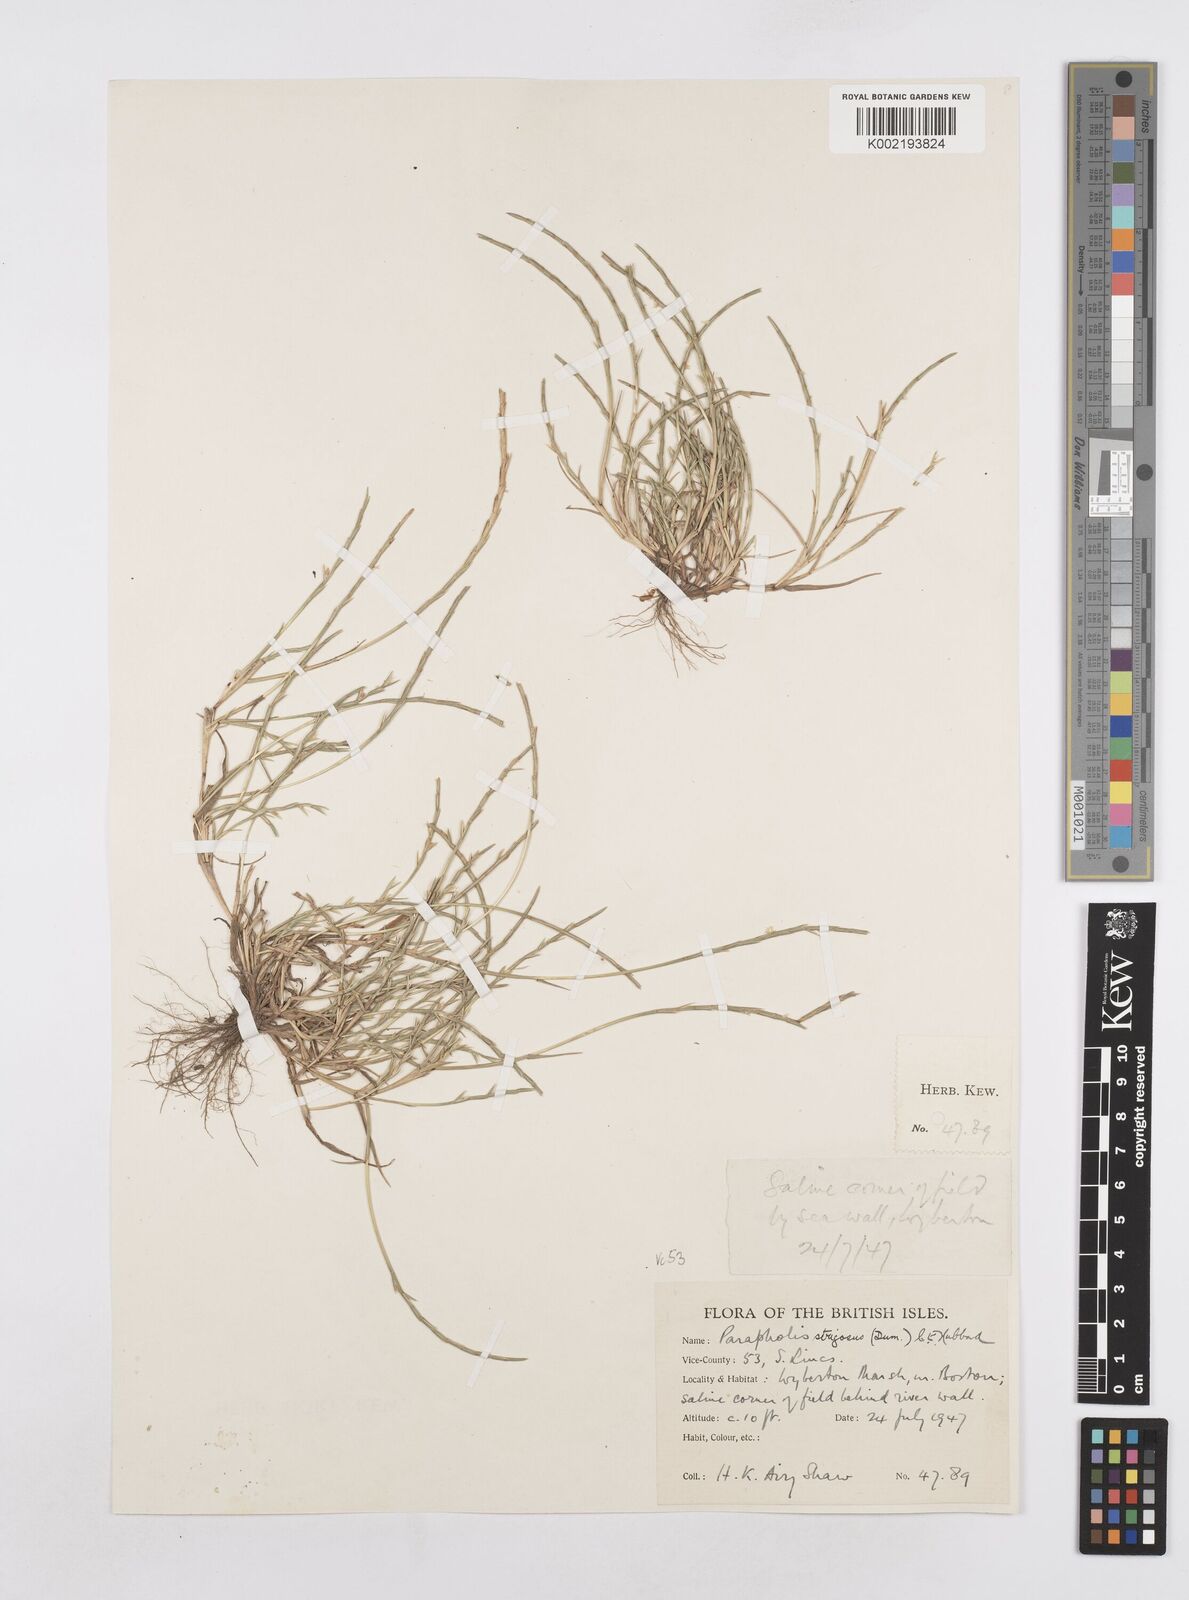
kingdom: Plantae
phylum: Tracheophyta
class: Liliopsida
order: Poales
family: Poaceae
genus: Parapholis
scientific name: Parapholis strigosa
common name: Hard-grass
